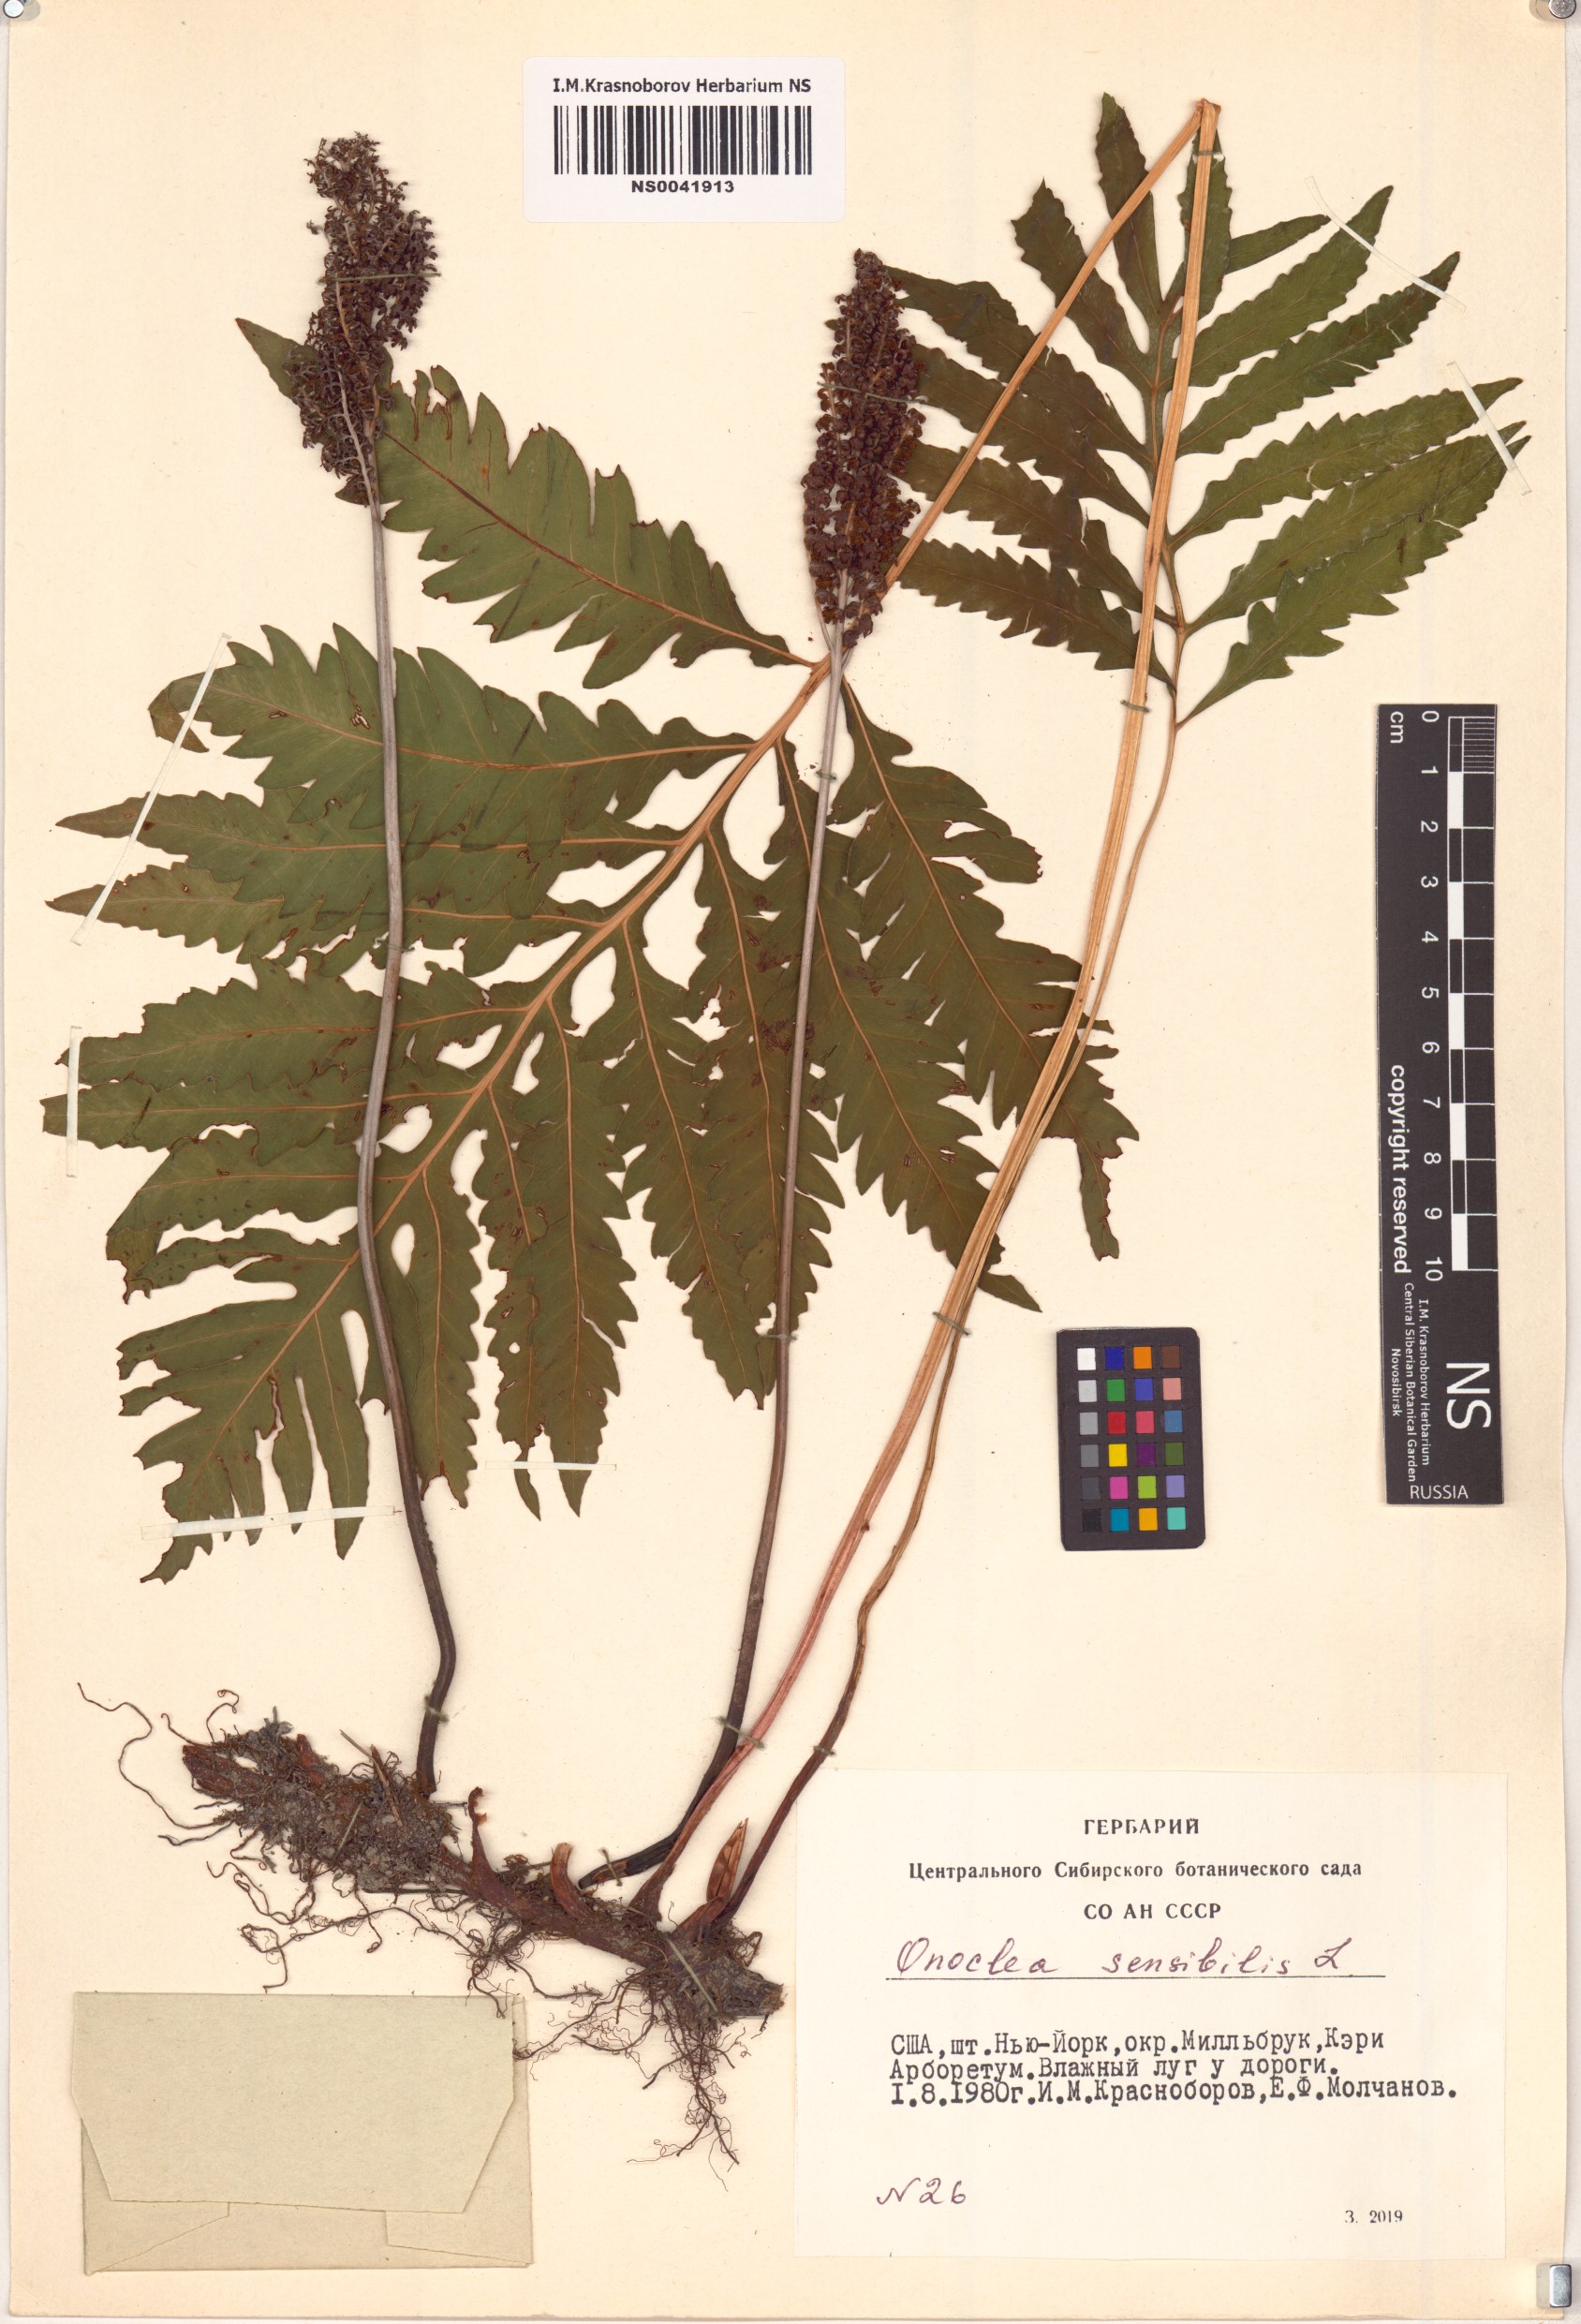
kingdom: Plantae
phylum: Tracheophyta
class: Polypodiopsida
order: Polypodiales
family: Onocleaceae
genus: Onoclea
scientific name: Onoclea sensibilis
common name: Sensitive fern
